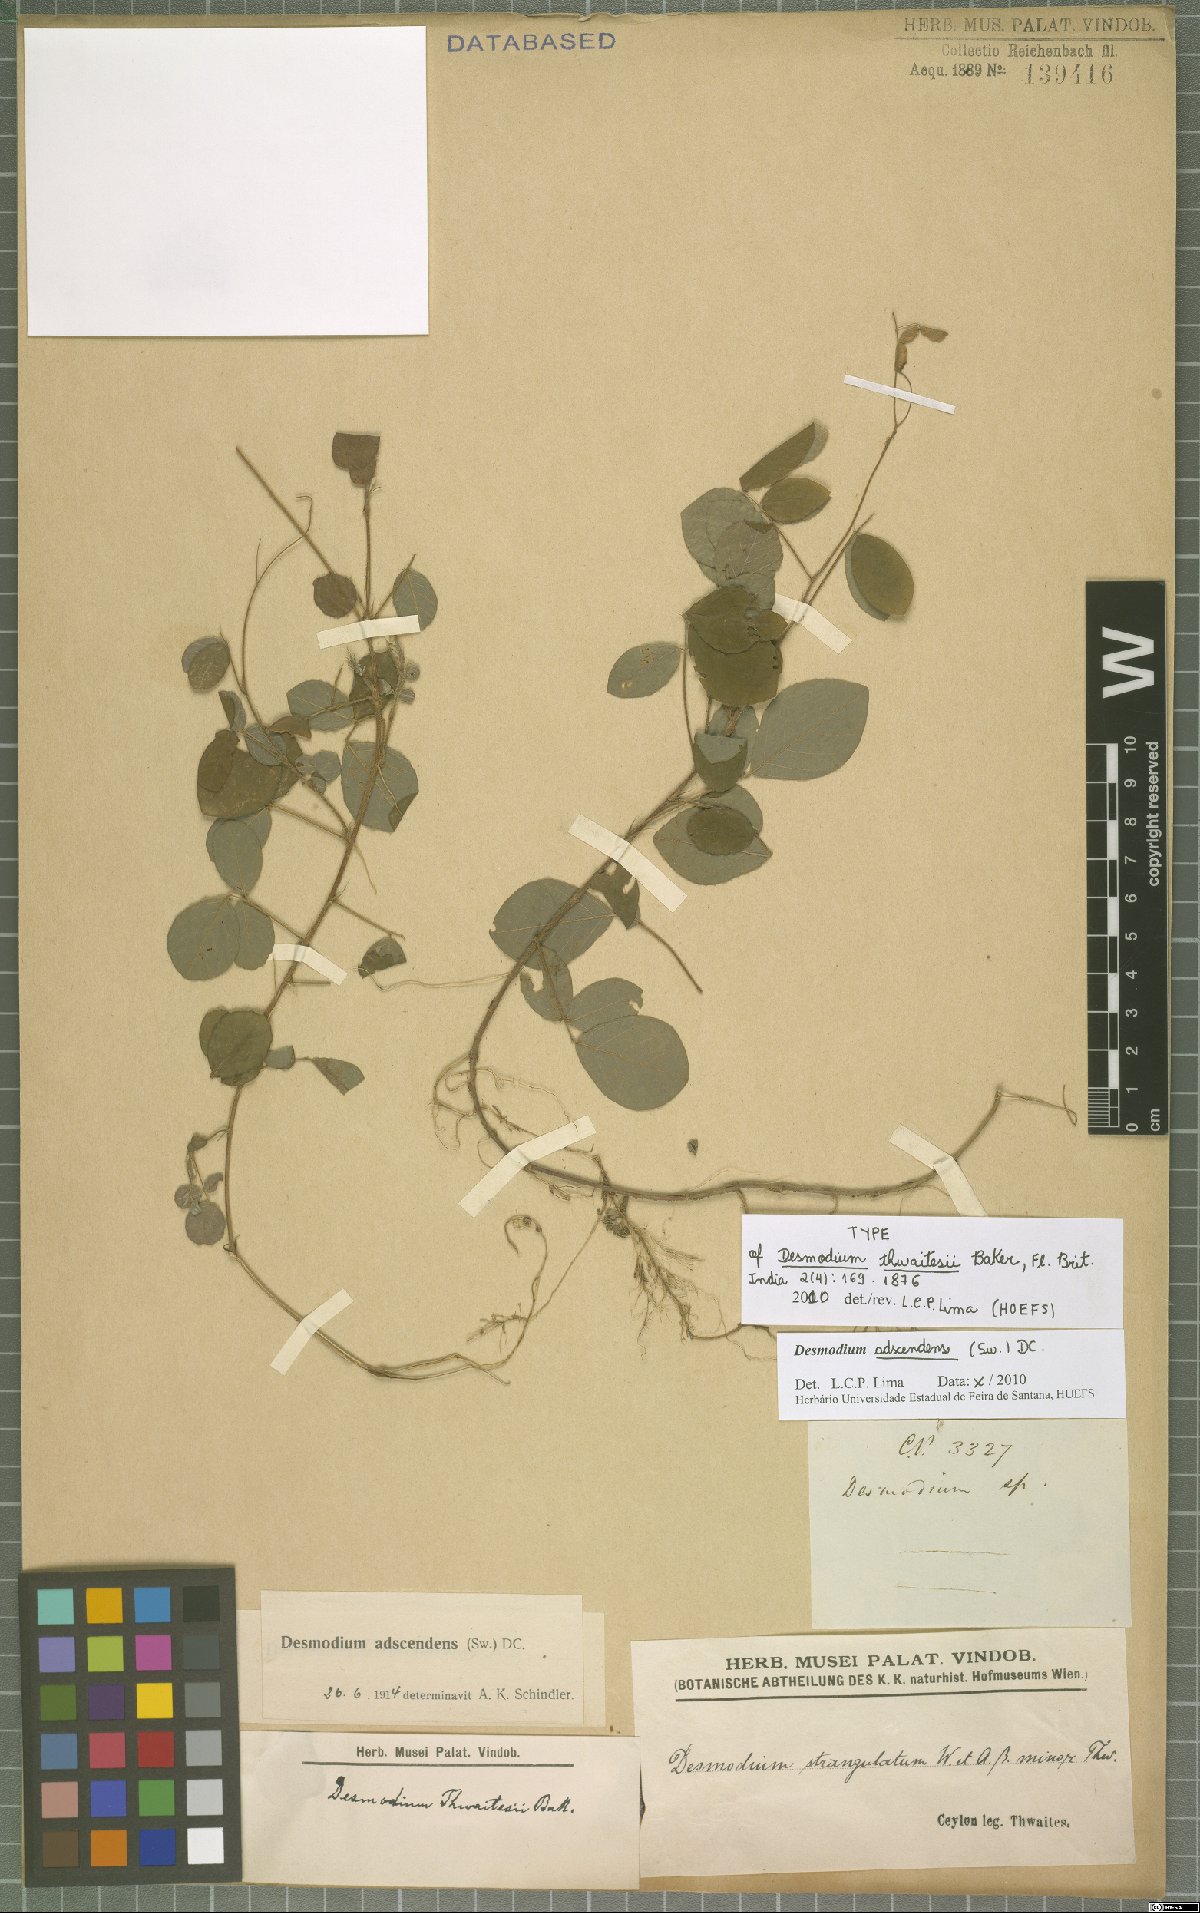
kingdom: Plantae
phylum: Tracheophyta
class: Magnoliopsida
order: Fabales
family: Fabaceae
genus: Grona
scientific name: Grona adscendens
